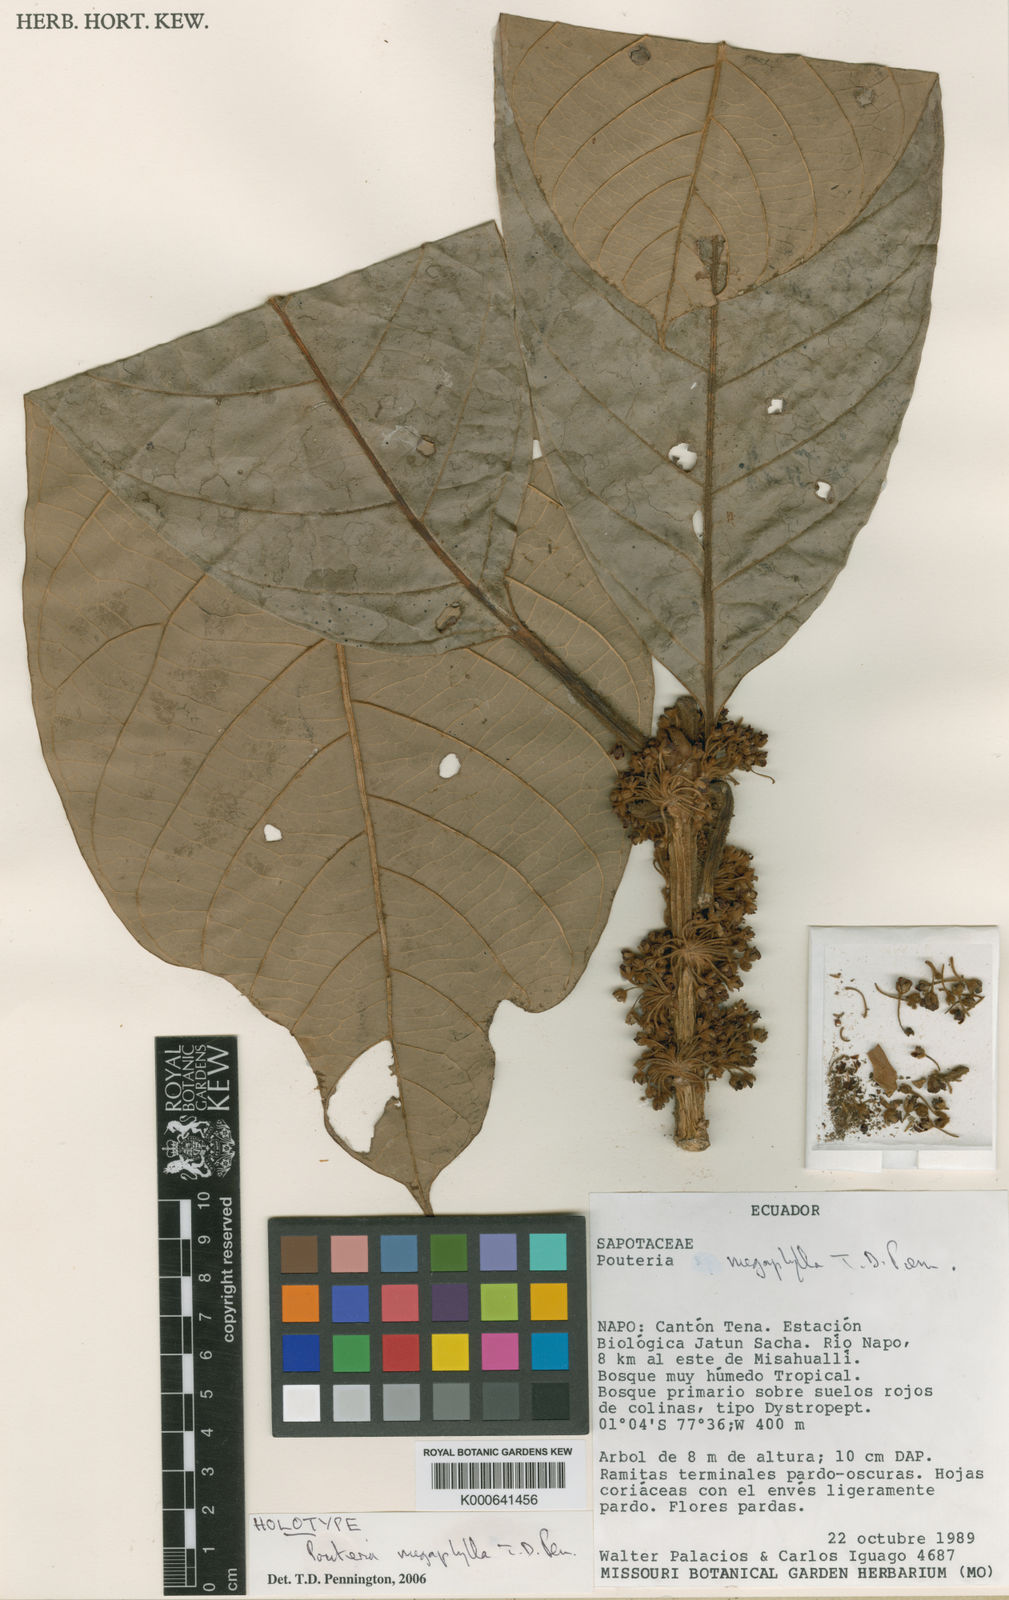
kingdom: Plantae
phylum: Tracheophyta
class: Magnoliopsida
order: Ericales
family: Sapotaceae
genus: Pouteria
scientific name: Pouteria megaphylla
